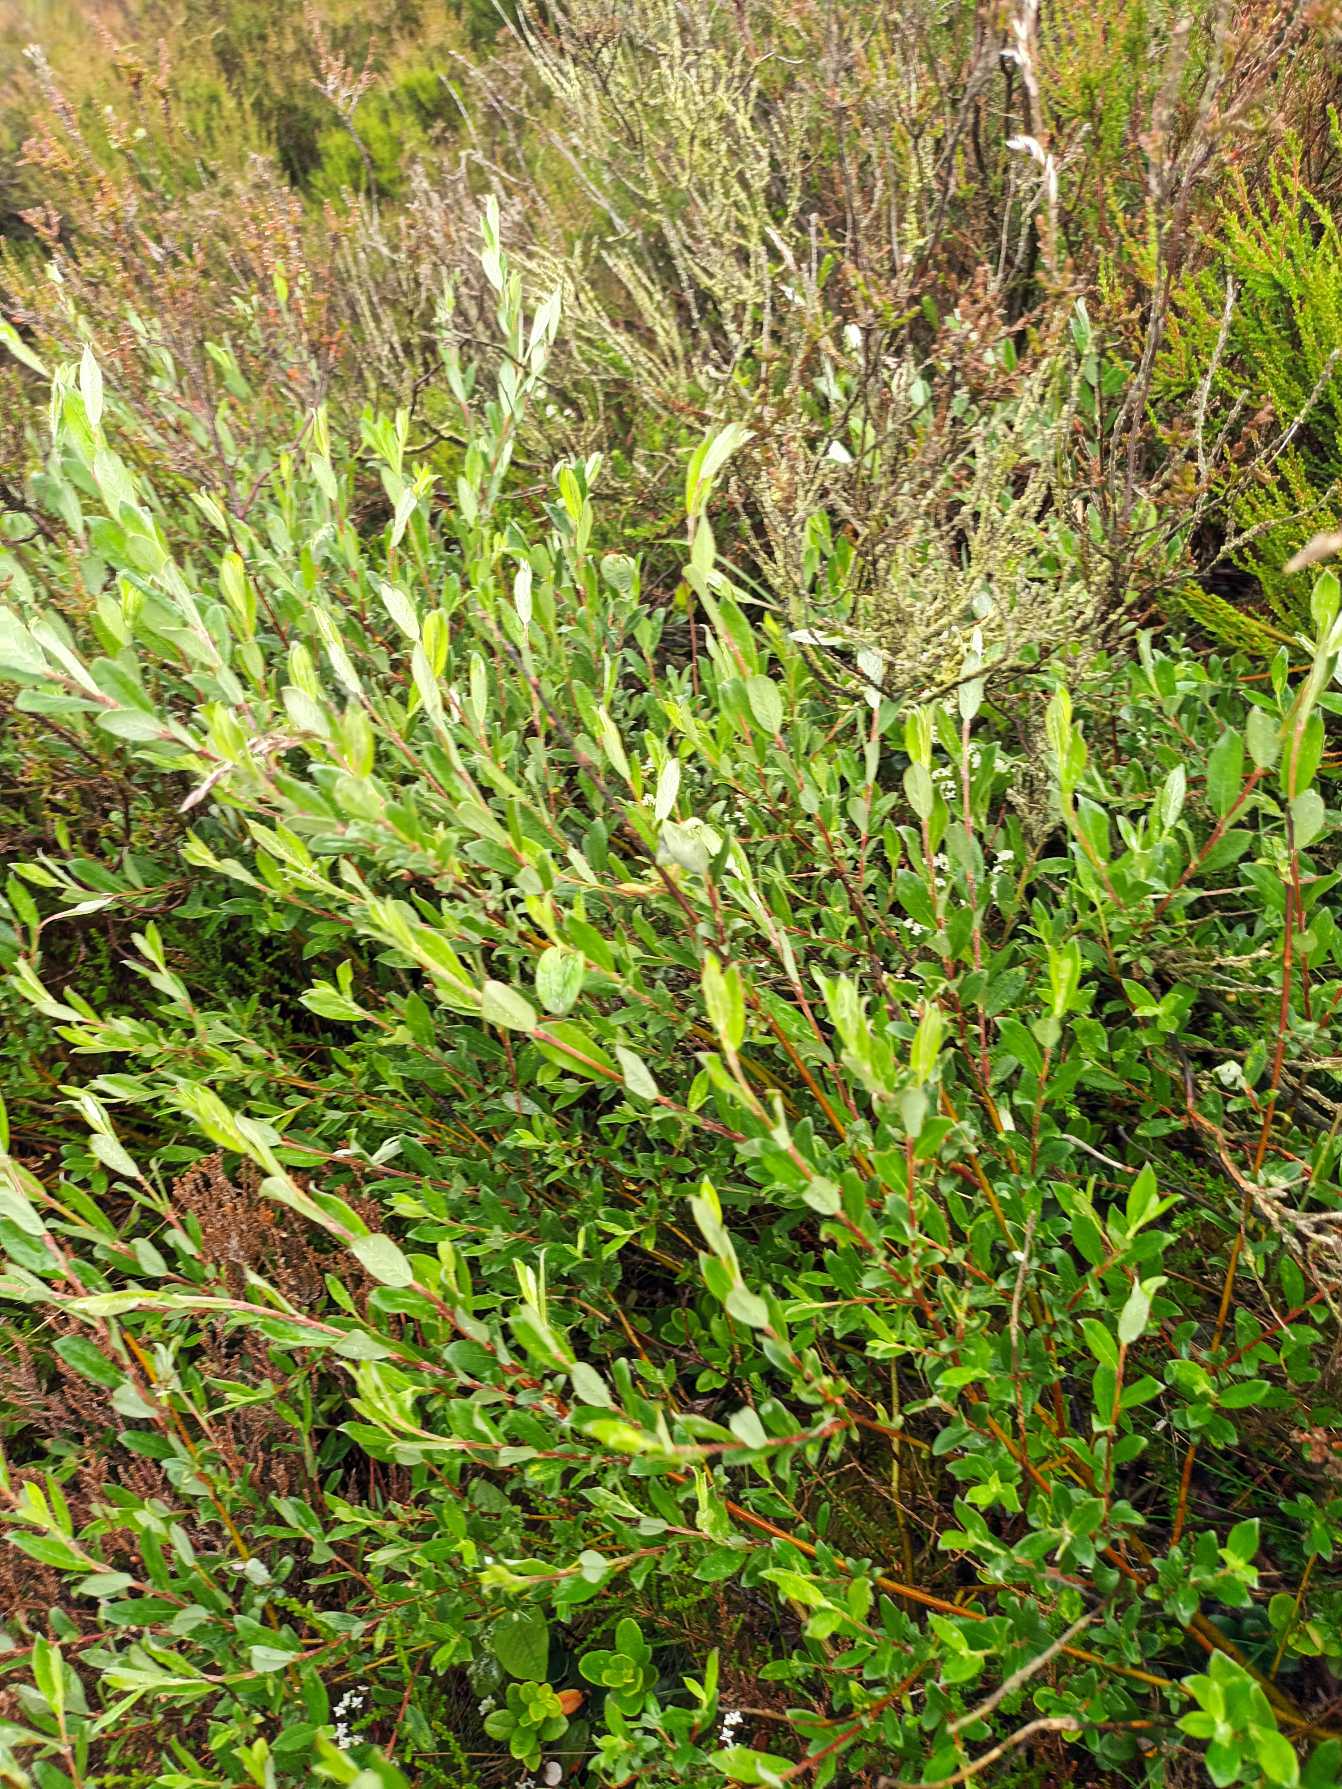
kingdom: Plantae
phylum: Tracheophyta
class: Magnoliopsida
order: Malpighiales
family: Salicaceae
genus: Salix
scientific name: Salix repens
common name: Krybende pil
